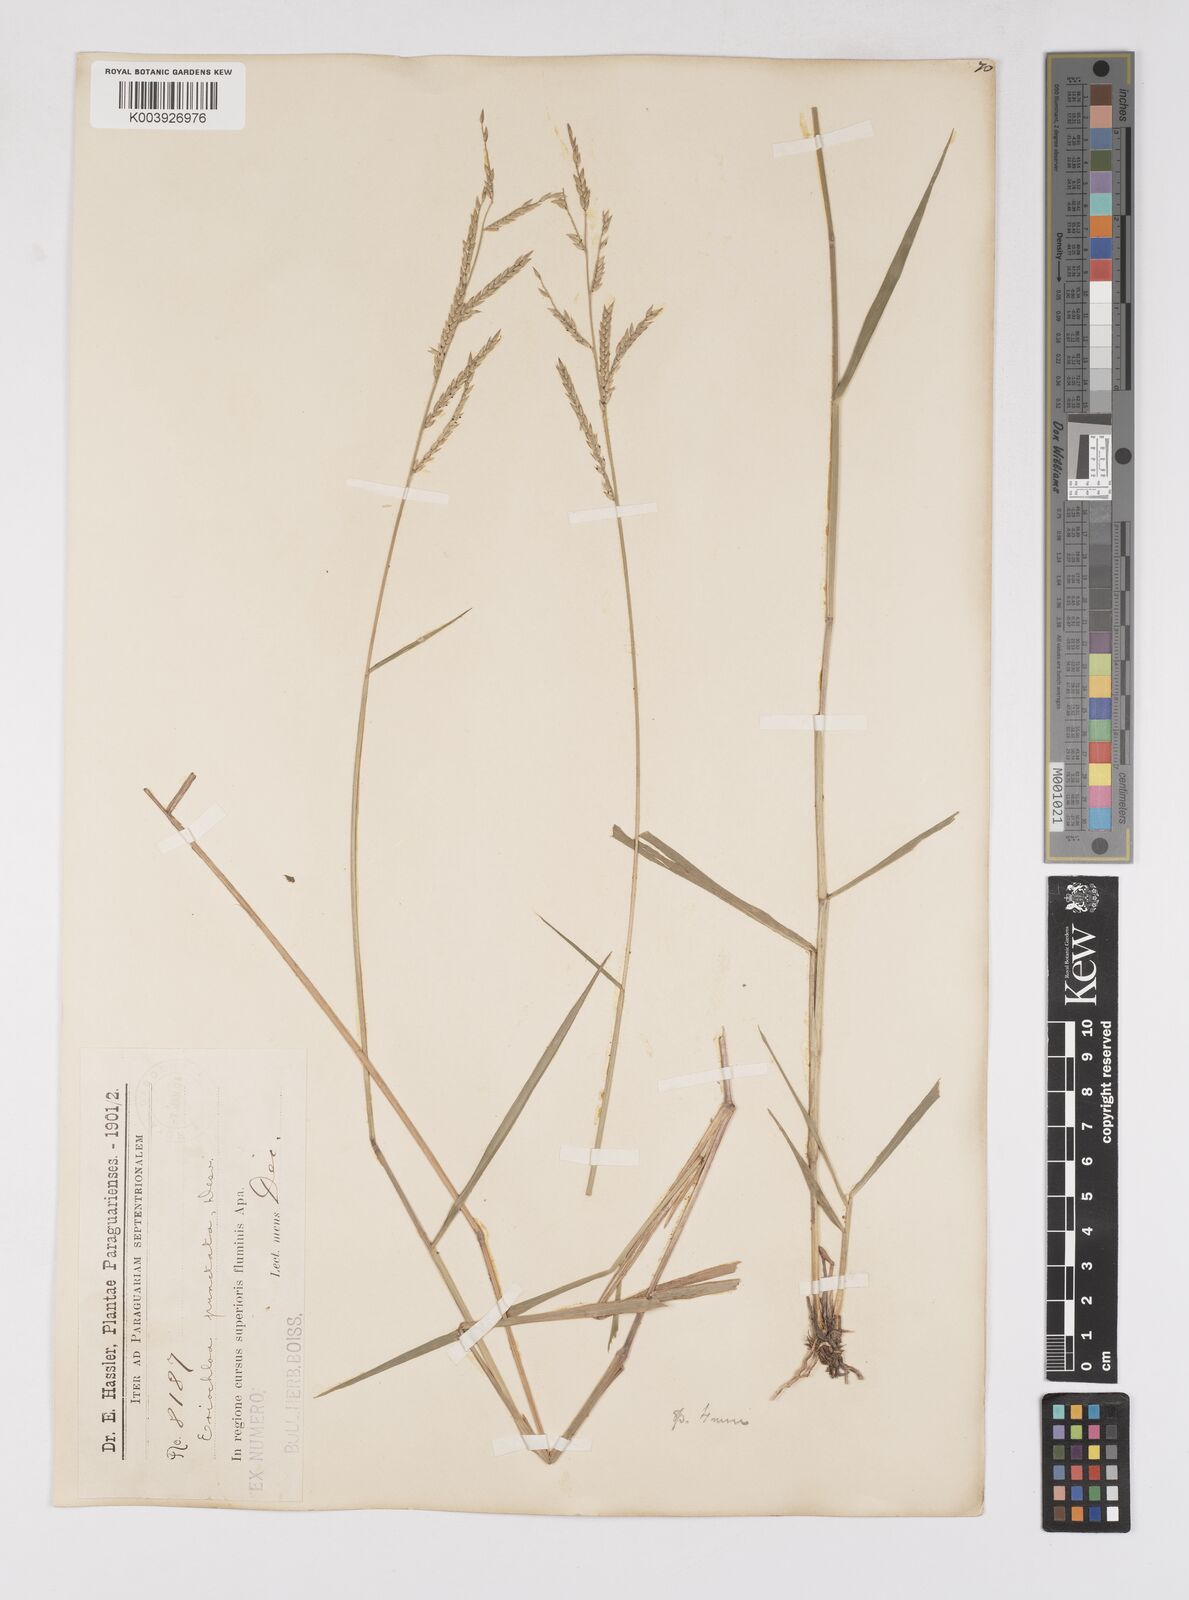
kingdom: Plantae
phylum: Tracheophyta
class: Liliopsida
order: Poales
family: Poaceae
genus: Eriochloa
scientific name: Eriochloa punctata
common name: Louisiana cupgrass
